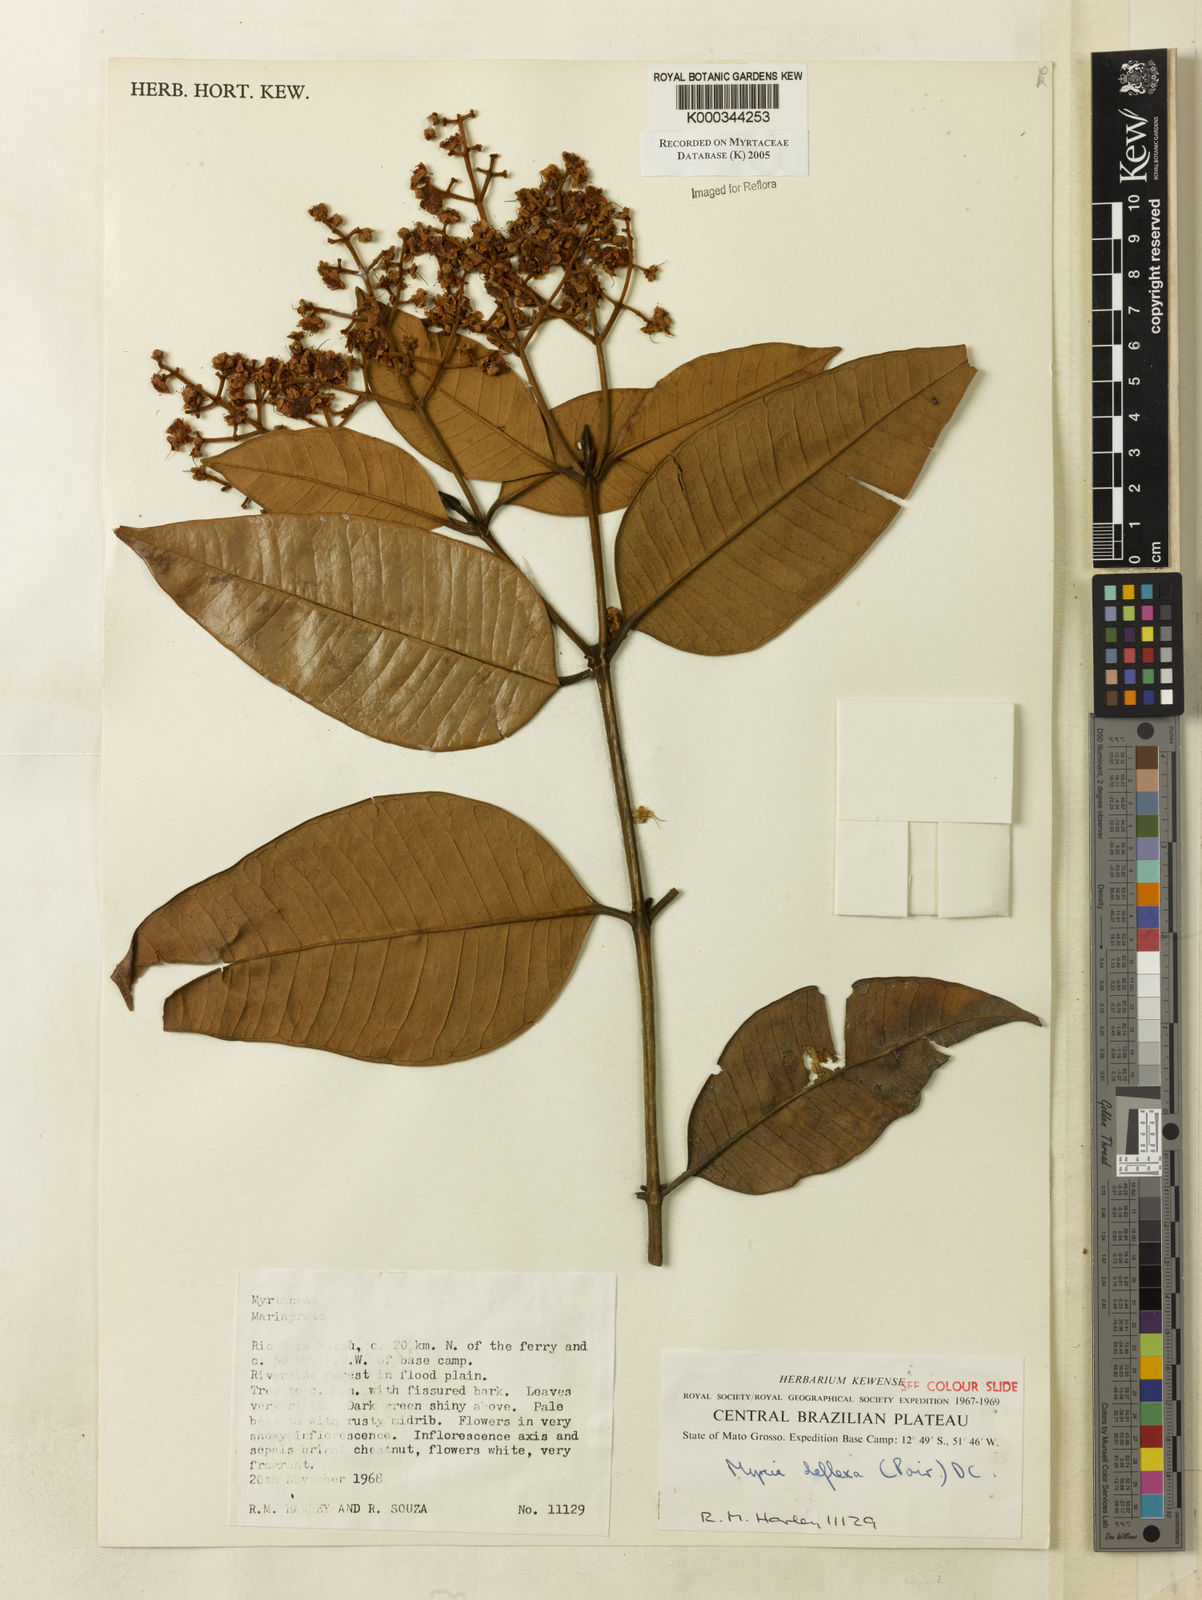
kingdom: Plantae
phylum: Tracheophyta
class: Magnoliopsida
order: Myrtales
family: Myrtaceae
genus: Myrcia
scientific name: Myrcia deflexa
